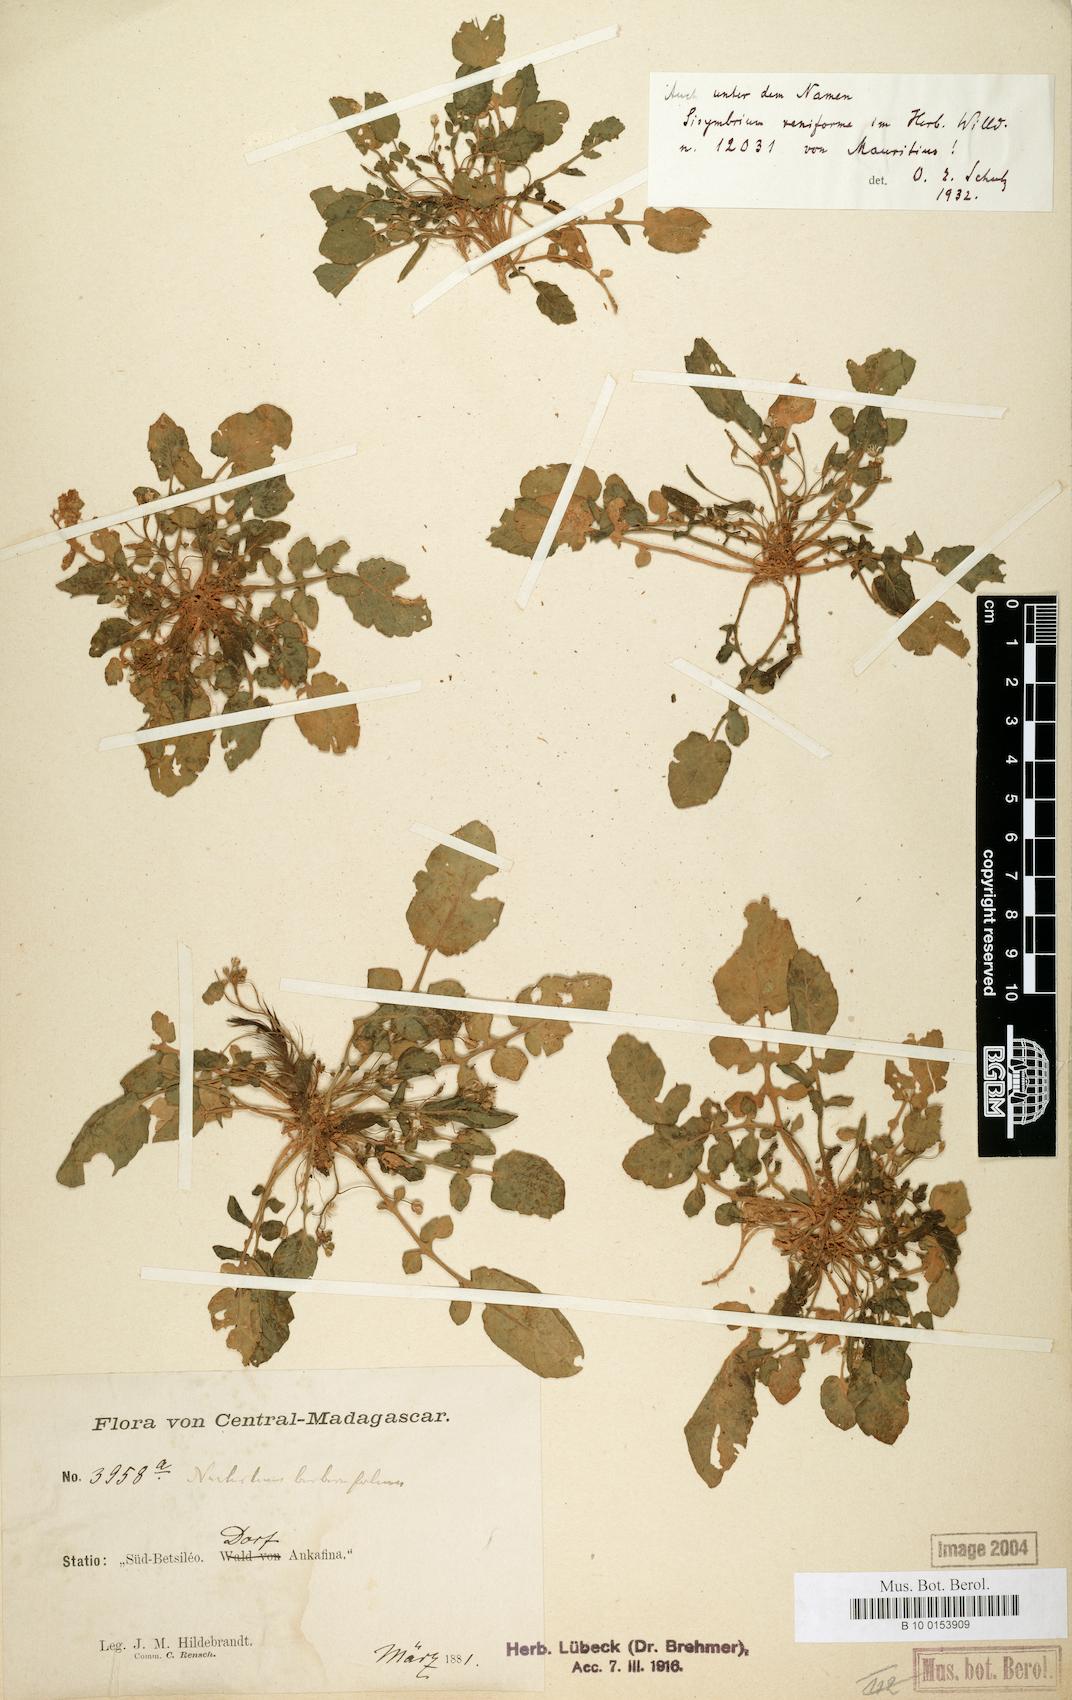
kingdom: Plantae
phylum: Tracheophyta
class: Magnoliopsida
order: Brassicales
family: Brassicaceae
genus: Rorippa
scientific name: Rorippa insularis
